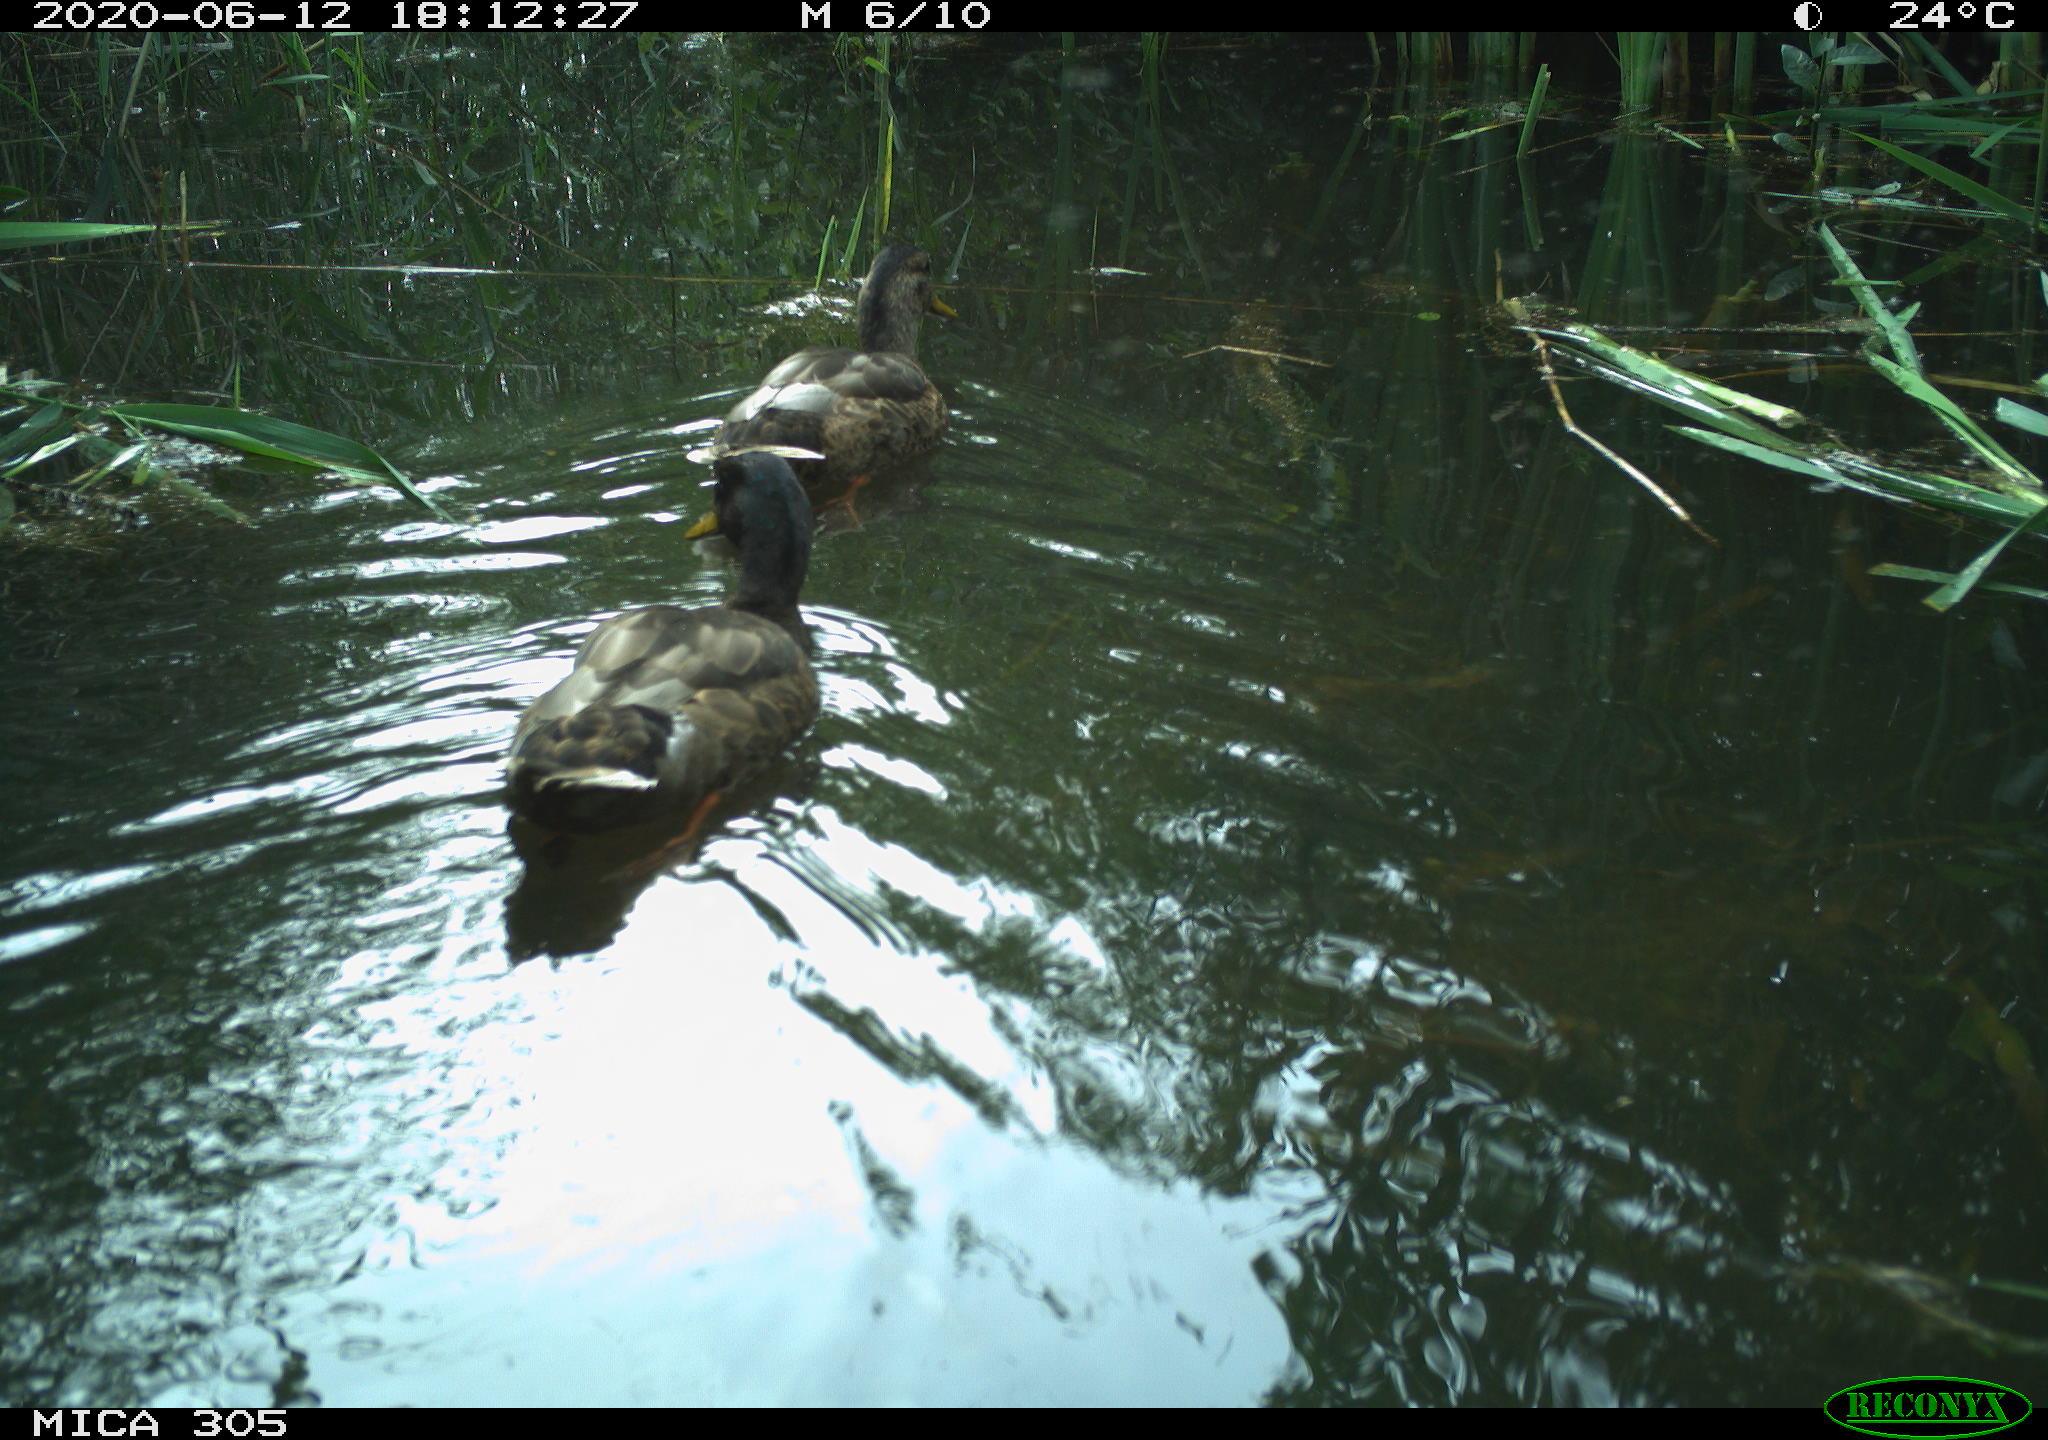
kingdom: Animalia
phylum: Chordata
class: Aves
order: Anseriformes
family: Anatidae
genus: Anas
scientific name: Anas platyrhynchos
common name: Mallard
